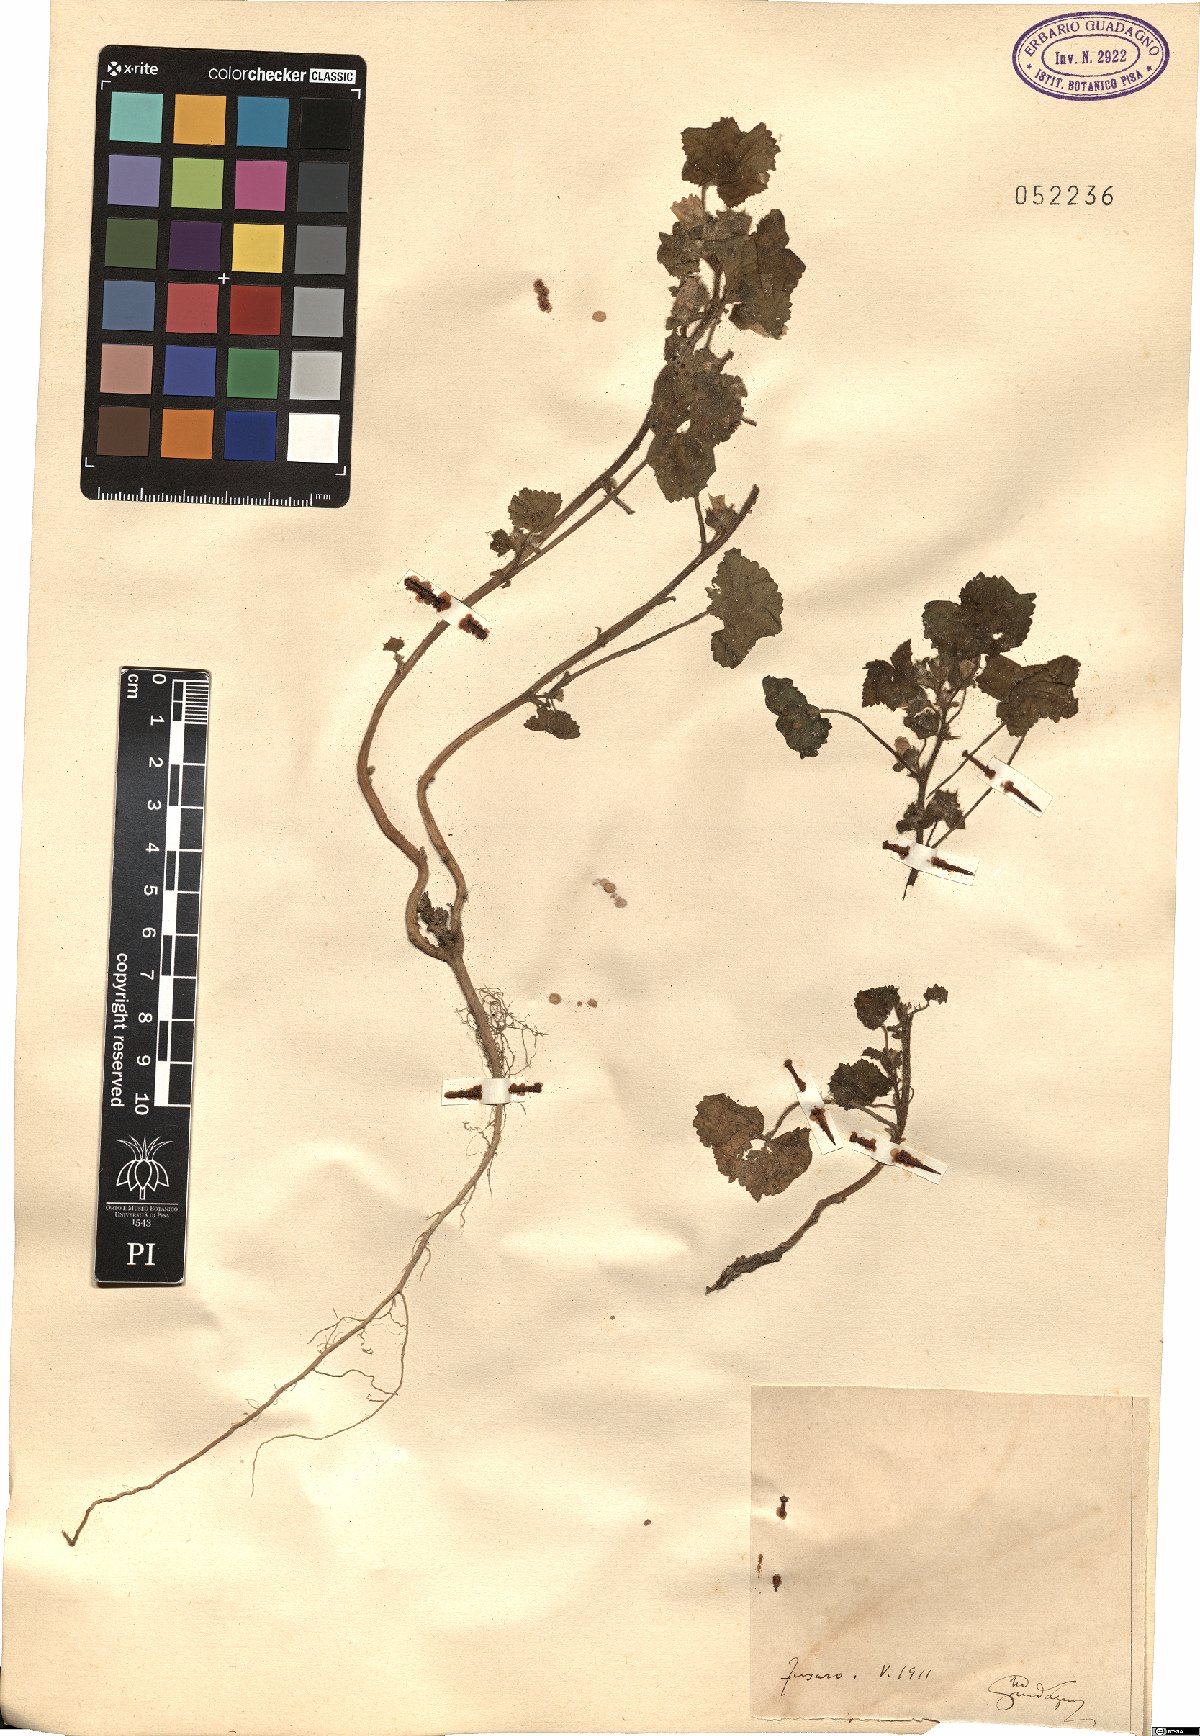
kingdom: Plantae
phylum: Tracheophyta
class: Magnoliopsida
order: Malvales
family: Malvaceae
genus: Malva
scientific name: Malva
